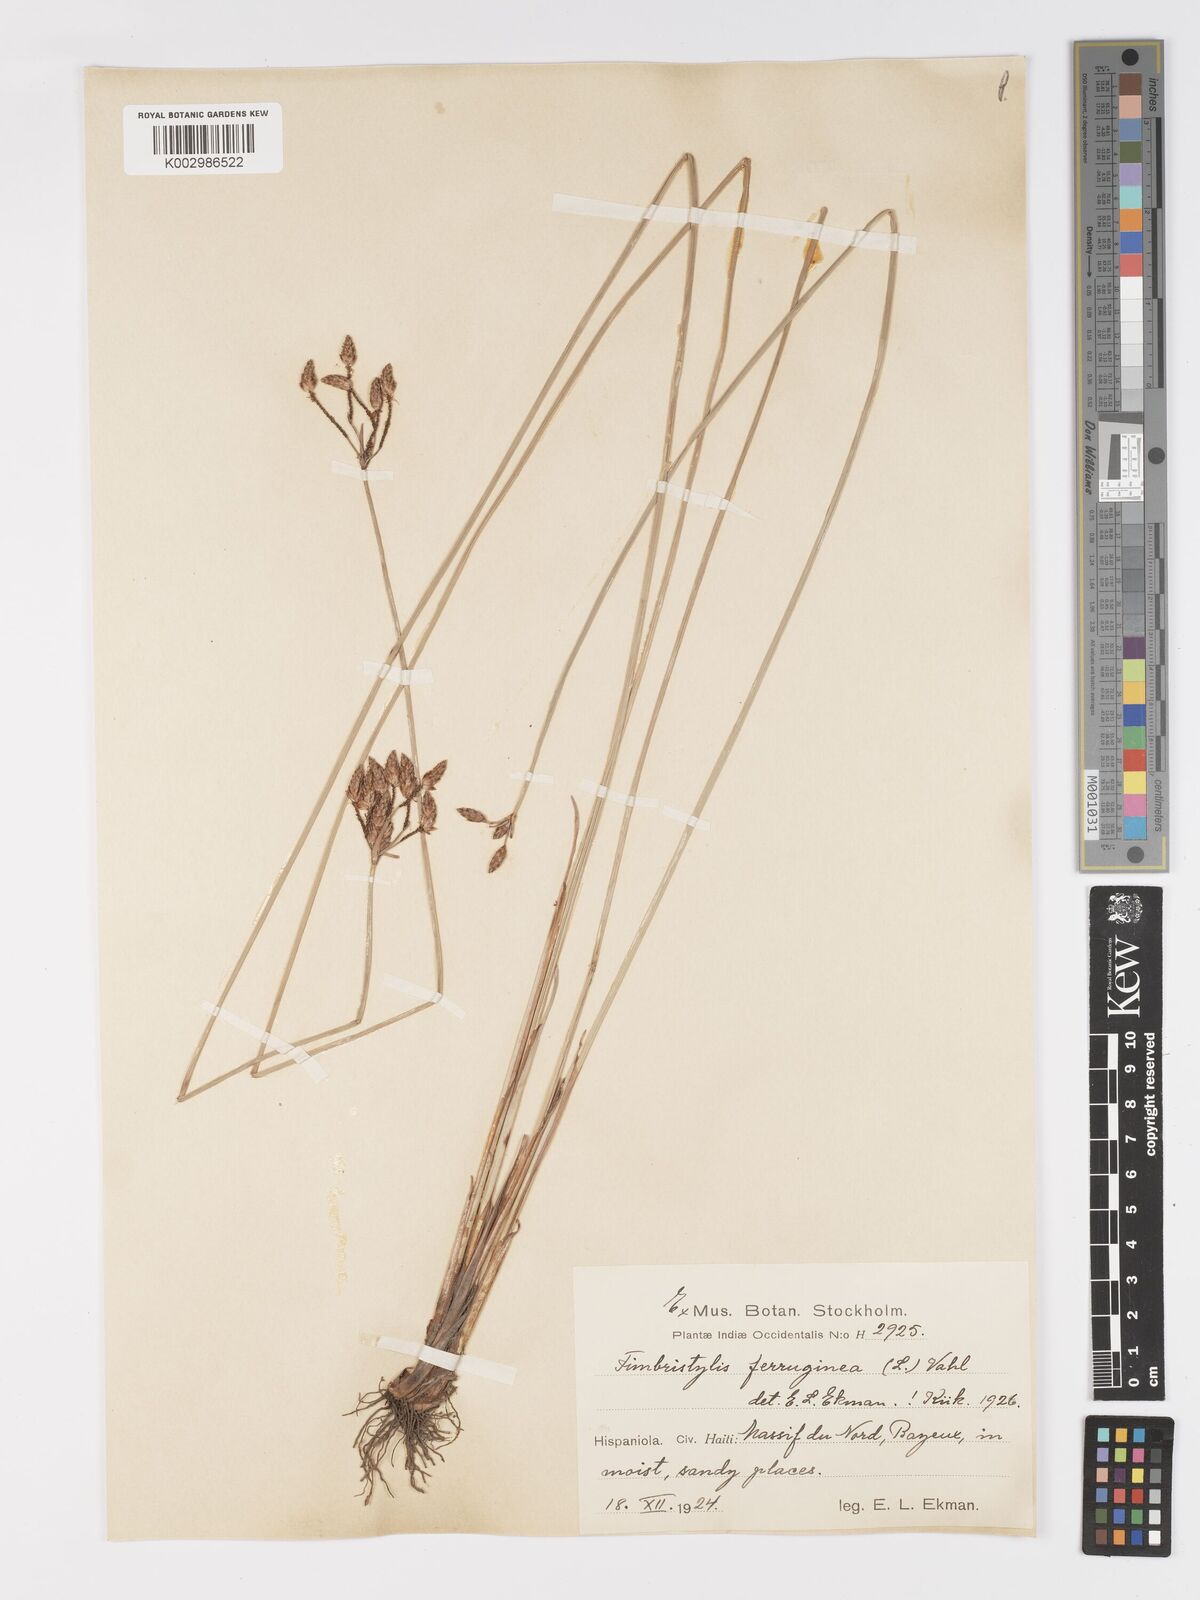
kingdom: Plantae
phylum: Tracheophyta
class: Liliopsida
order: Poales
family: Cyperaceae
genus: Fimbristylis
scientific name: Fimbristylis ferruginea
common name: West indian fimbry
